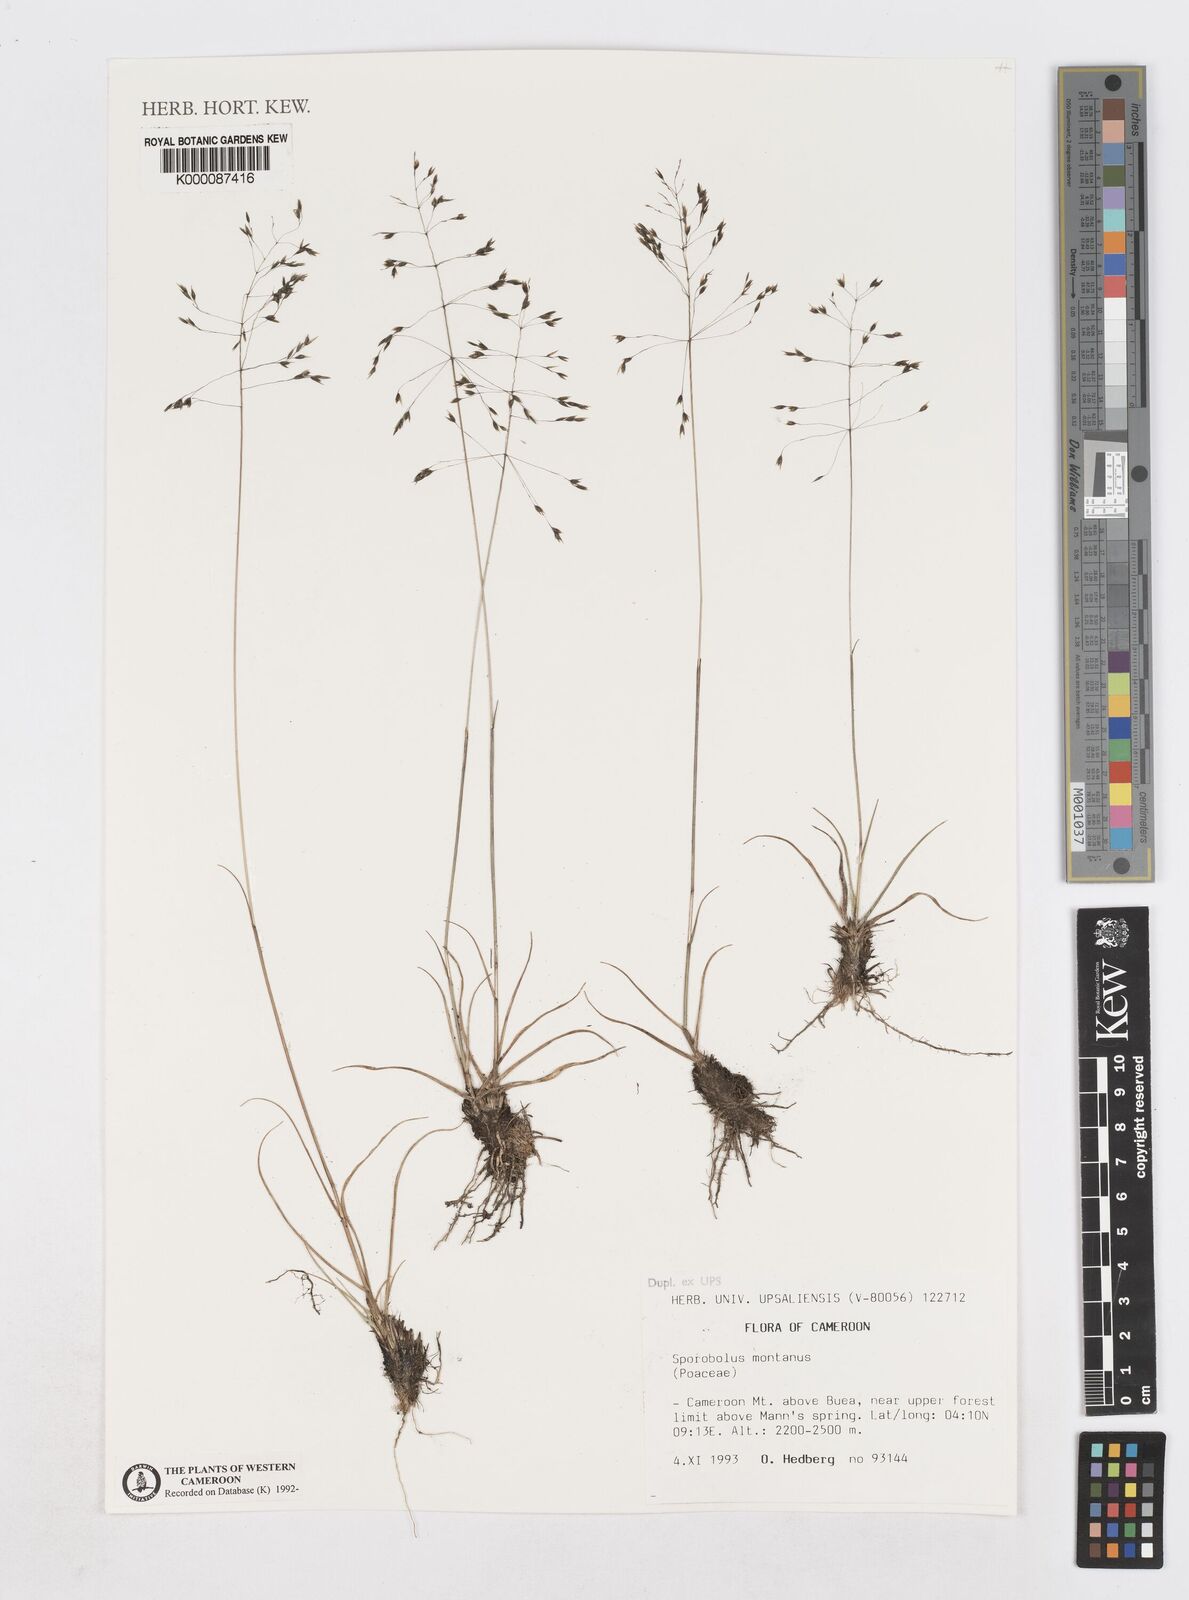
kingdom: Plantae
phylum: Tracheophyta
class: Liliopsida
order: Poales
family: Poaceae
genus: Sporobolus
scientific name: Sporobolus montanus
